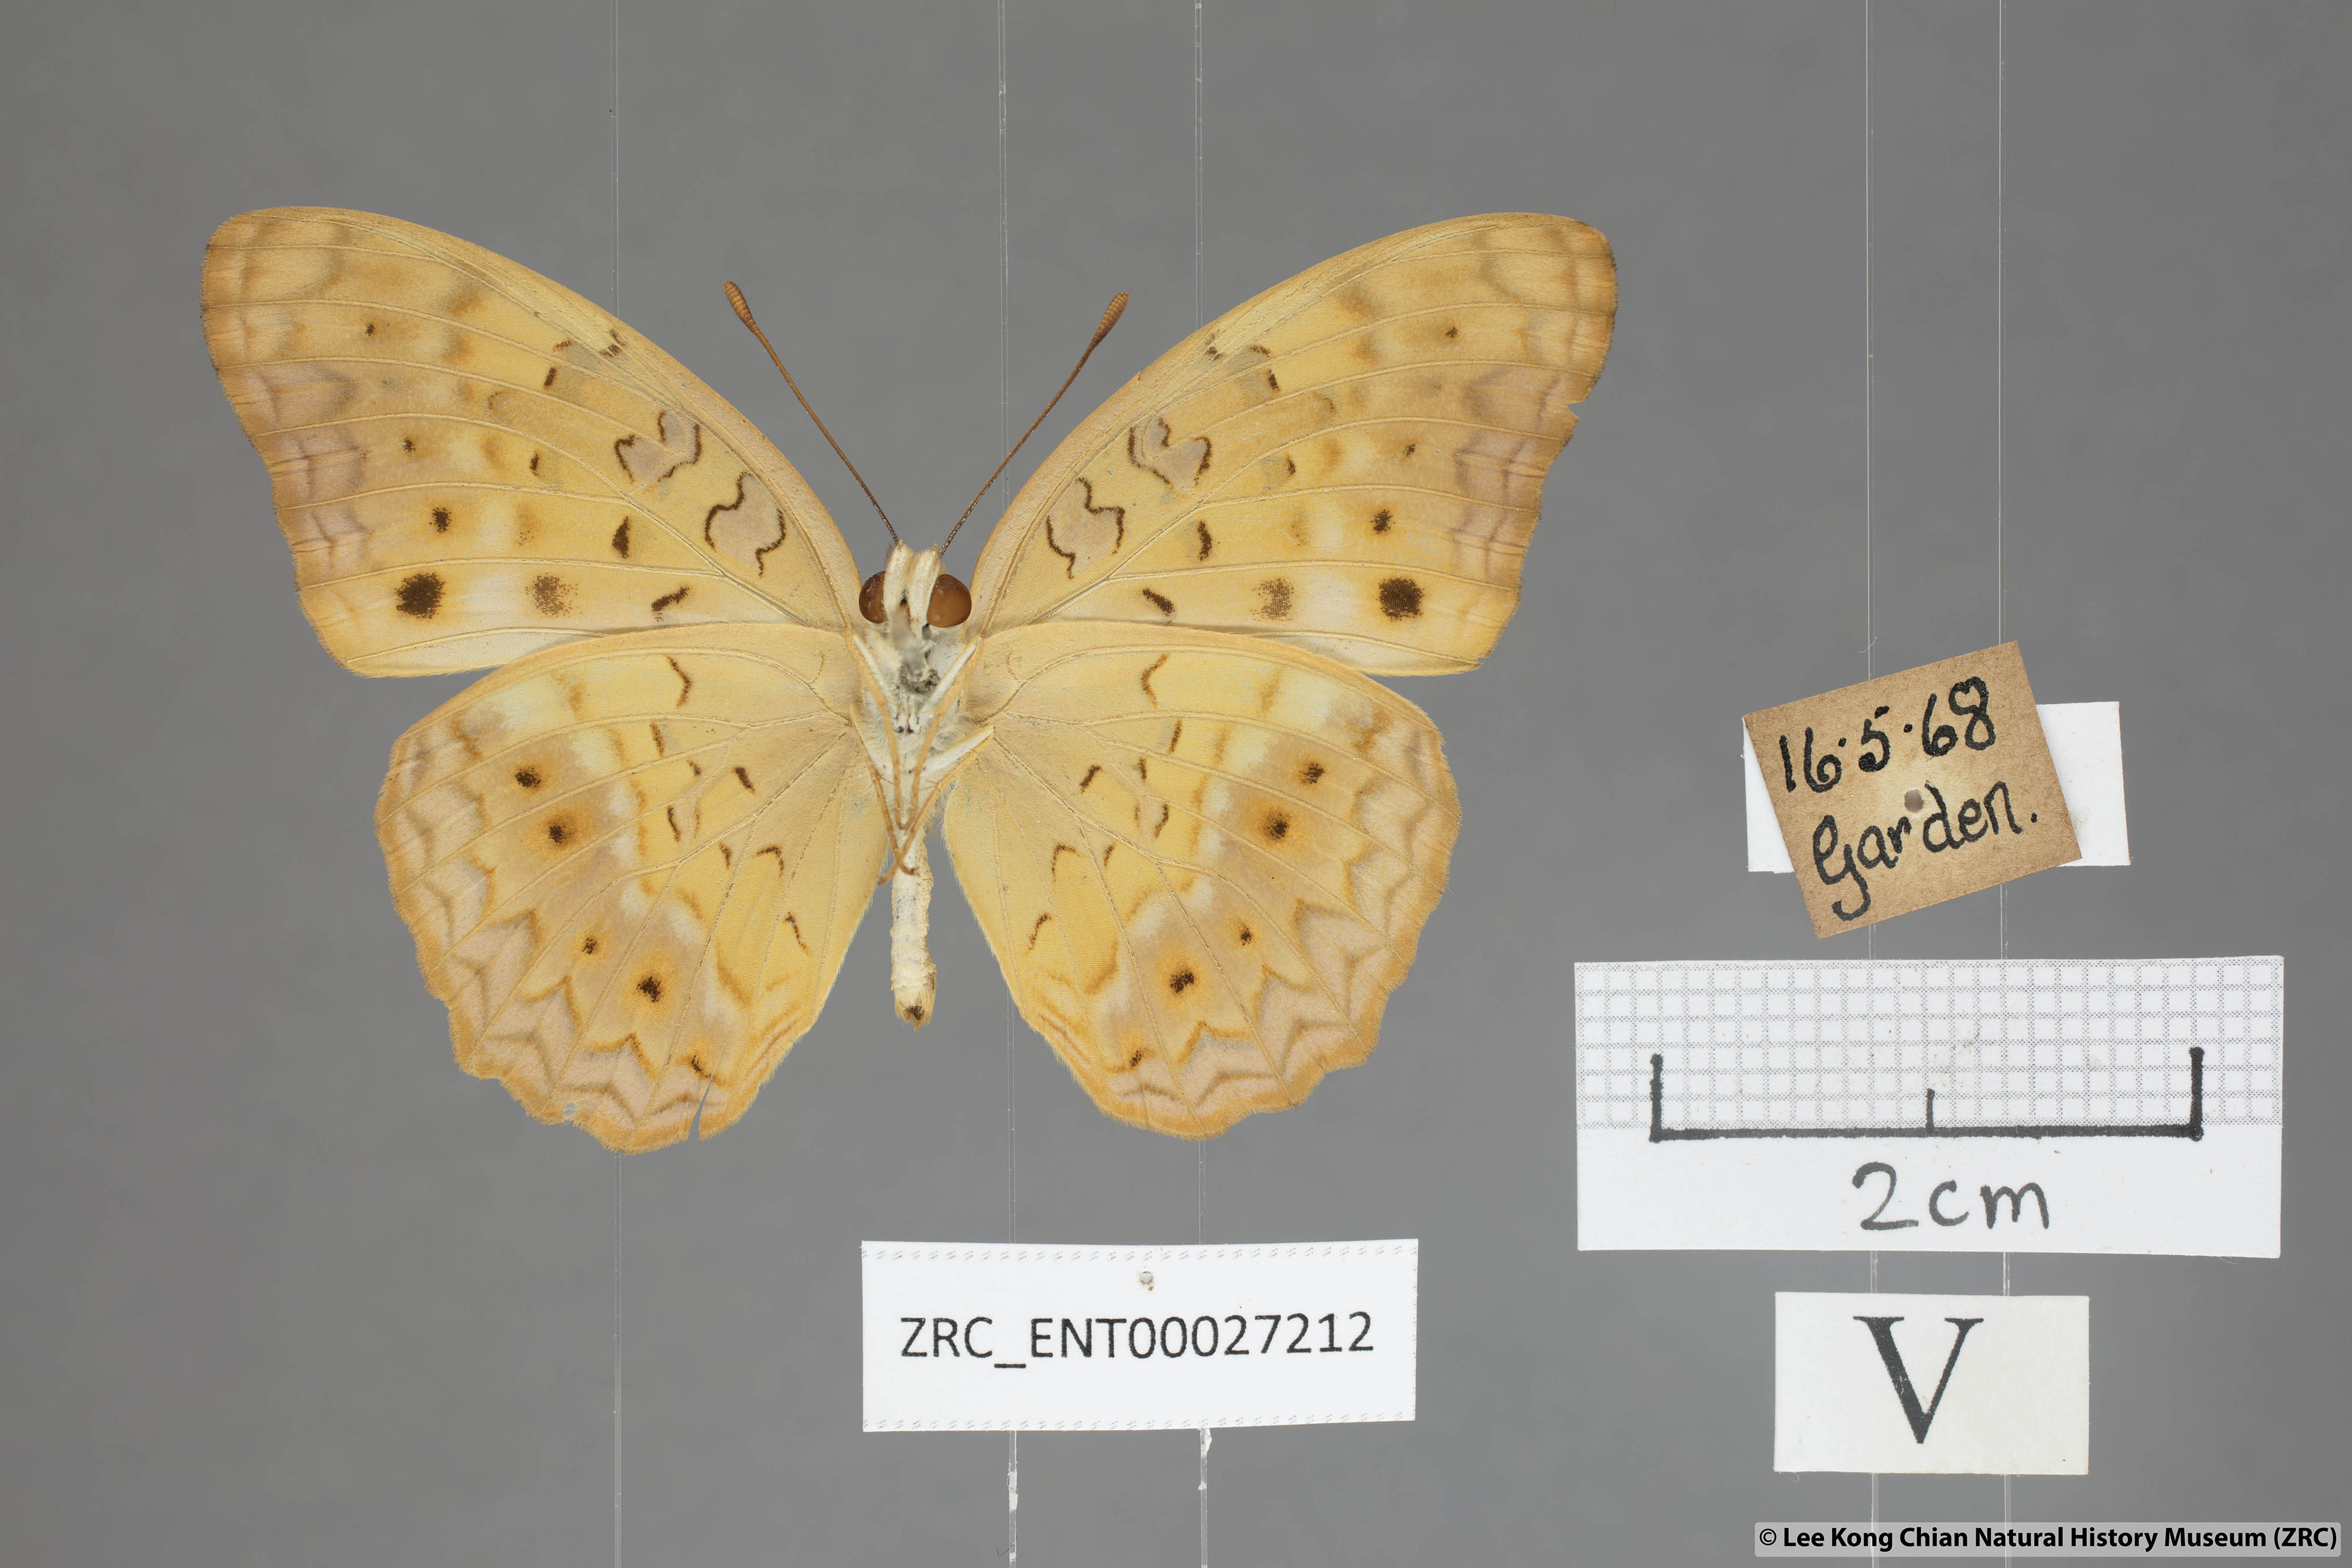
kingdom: Animalia
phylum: Arthropoda
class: Insecta
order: Lepidoptera
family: Nymphalidae
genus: Phalanta
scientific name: Phalanta phalantha
